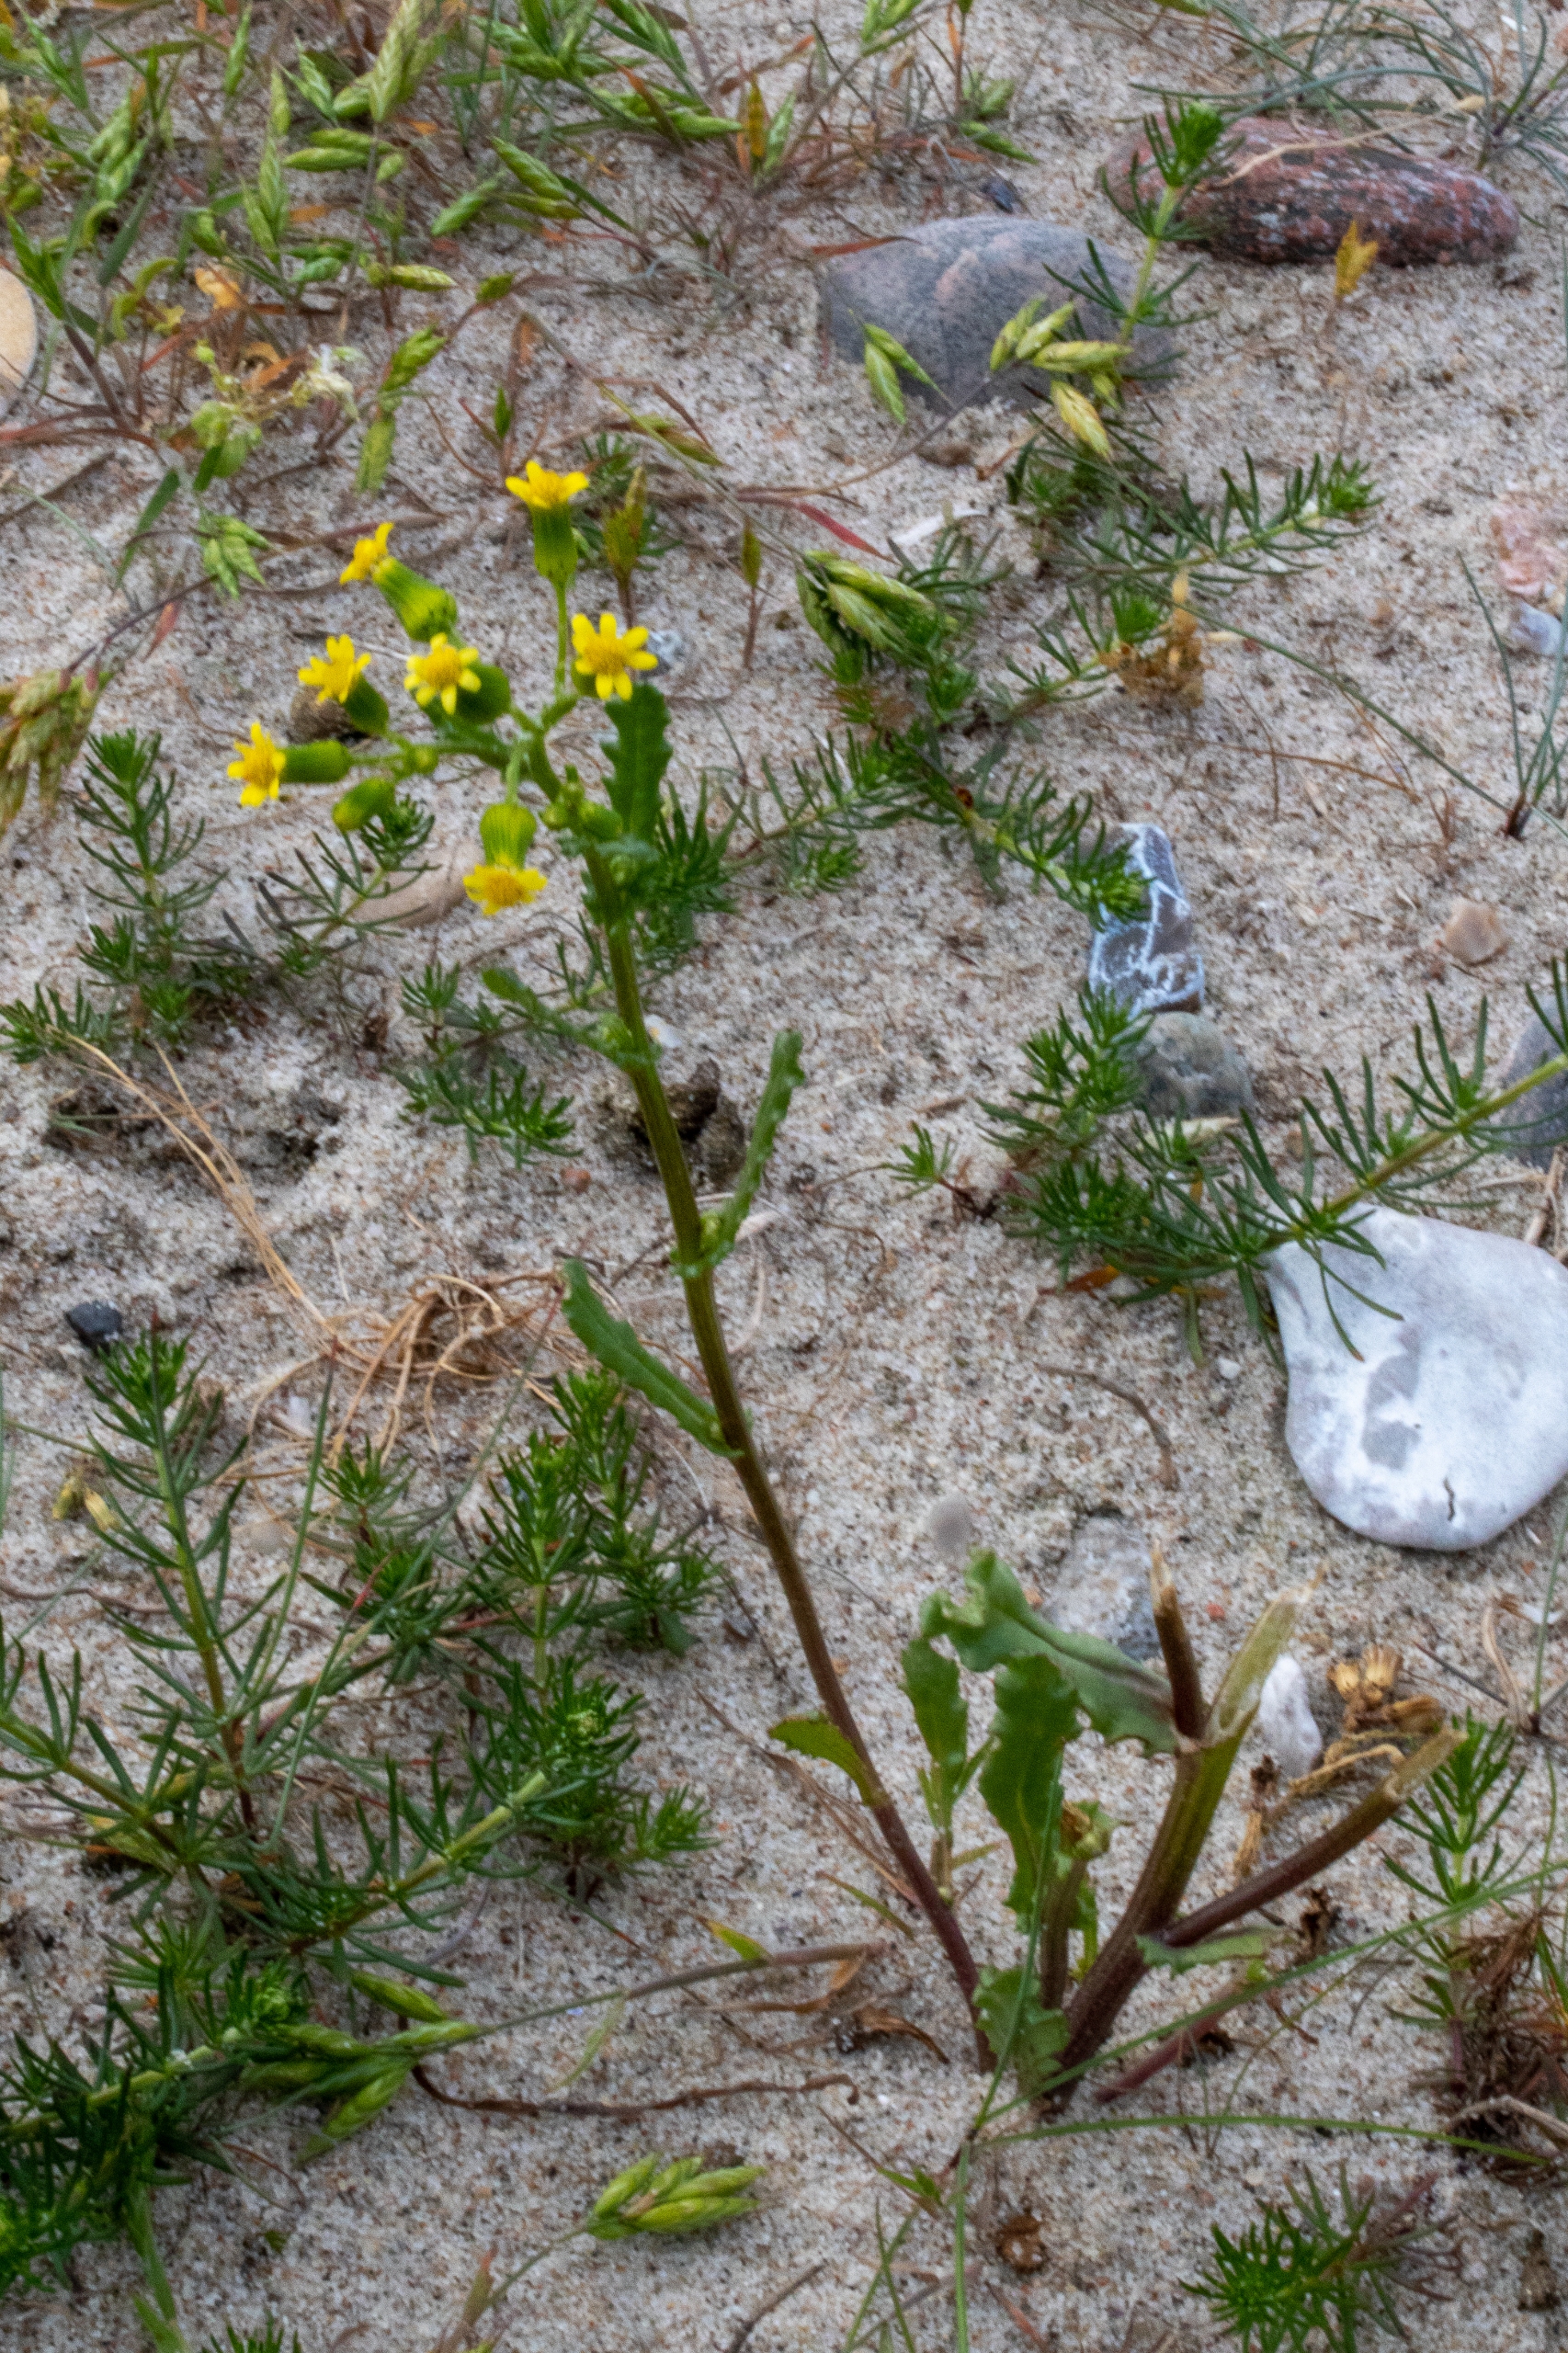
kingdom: Plantae
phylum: Tracheophyta
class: Magnoliopsida
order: Asterales
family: Asteraceae
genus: Senecio
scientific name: Senecio vulgaris
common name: Almindelig brandbæger
